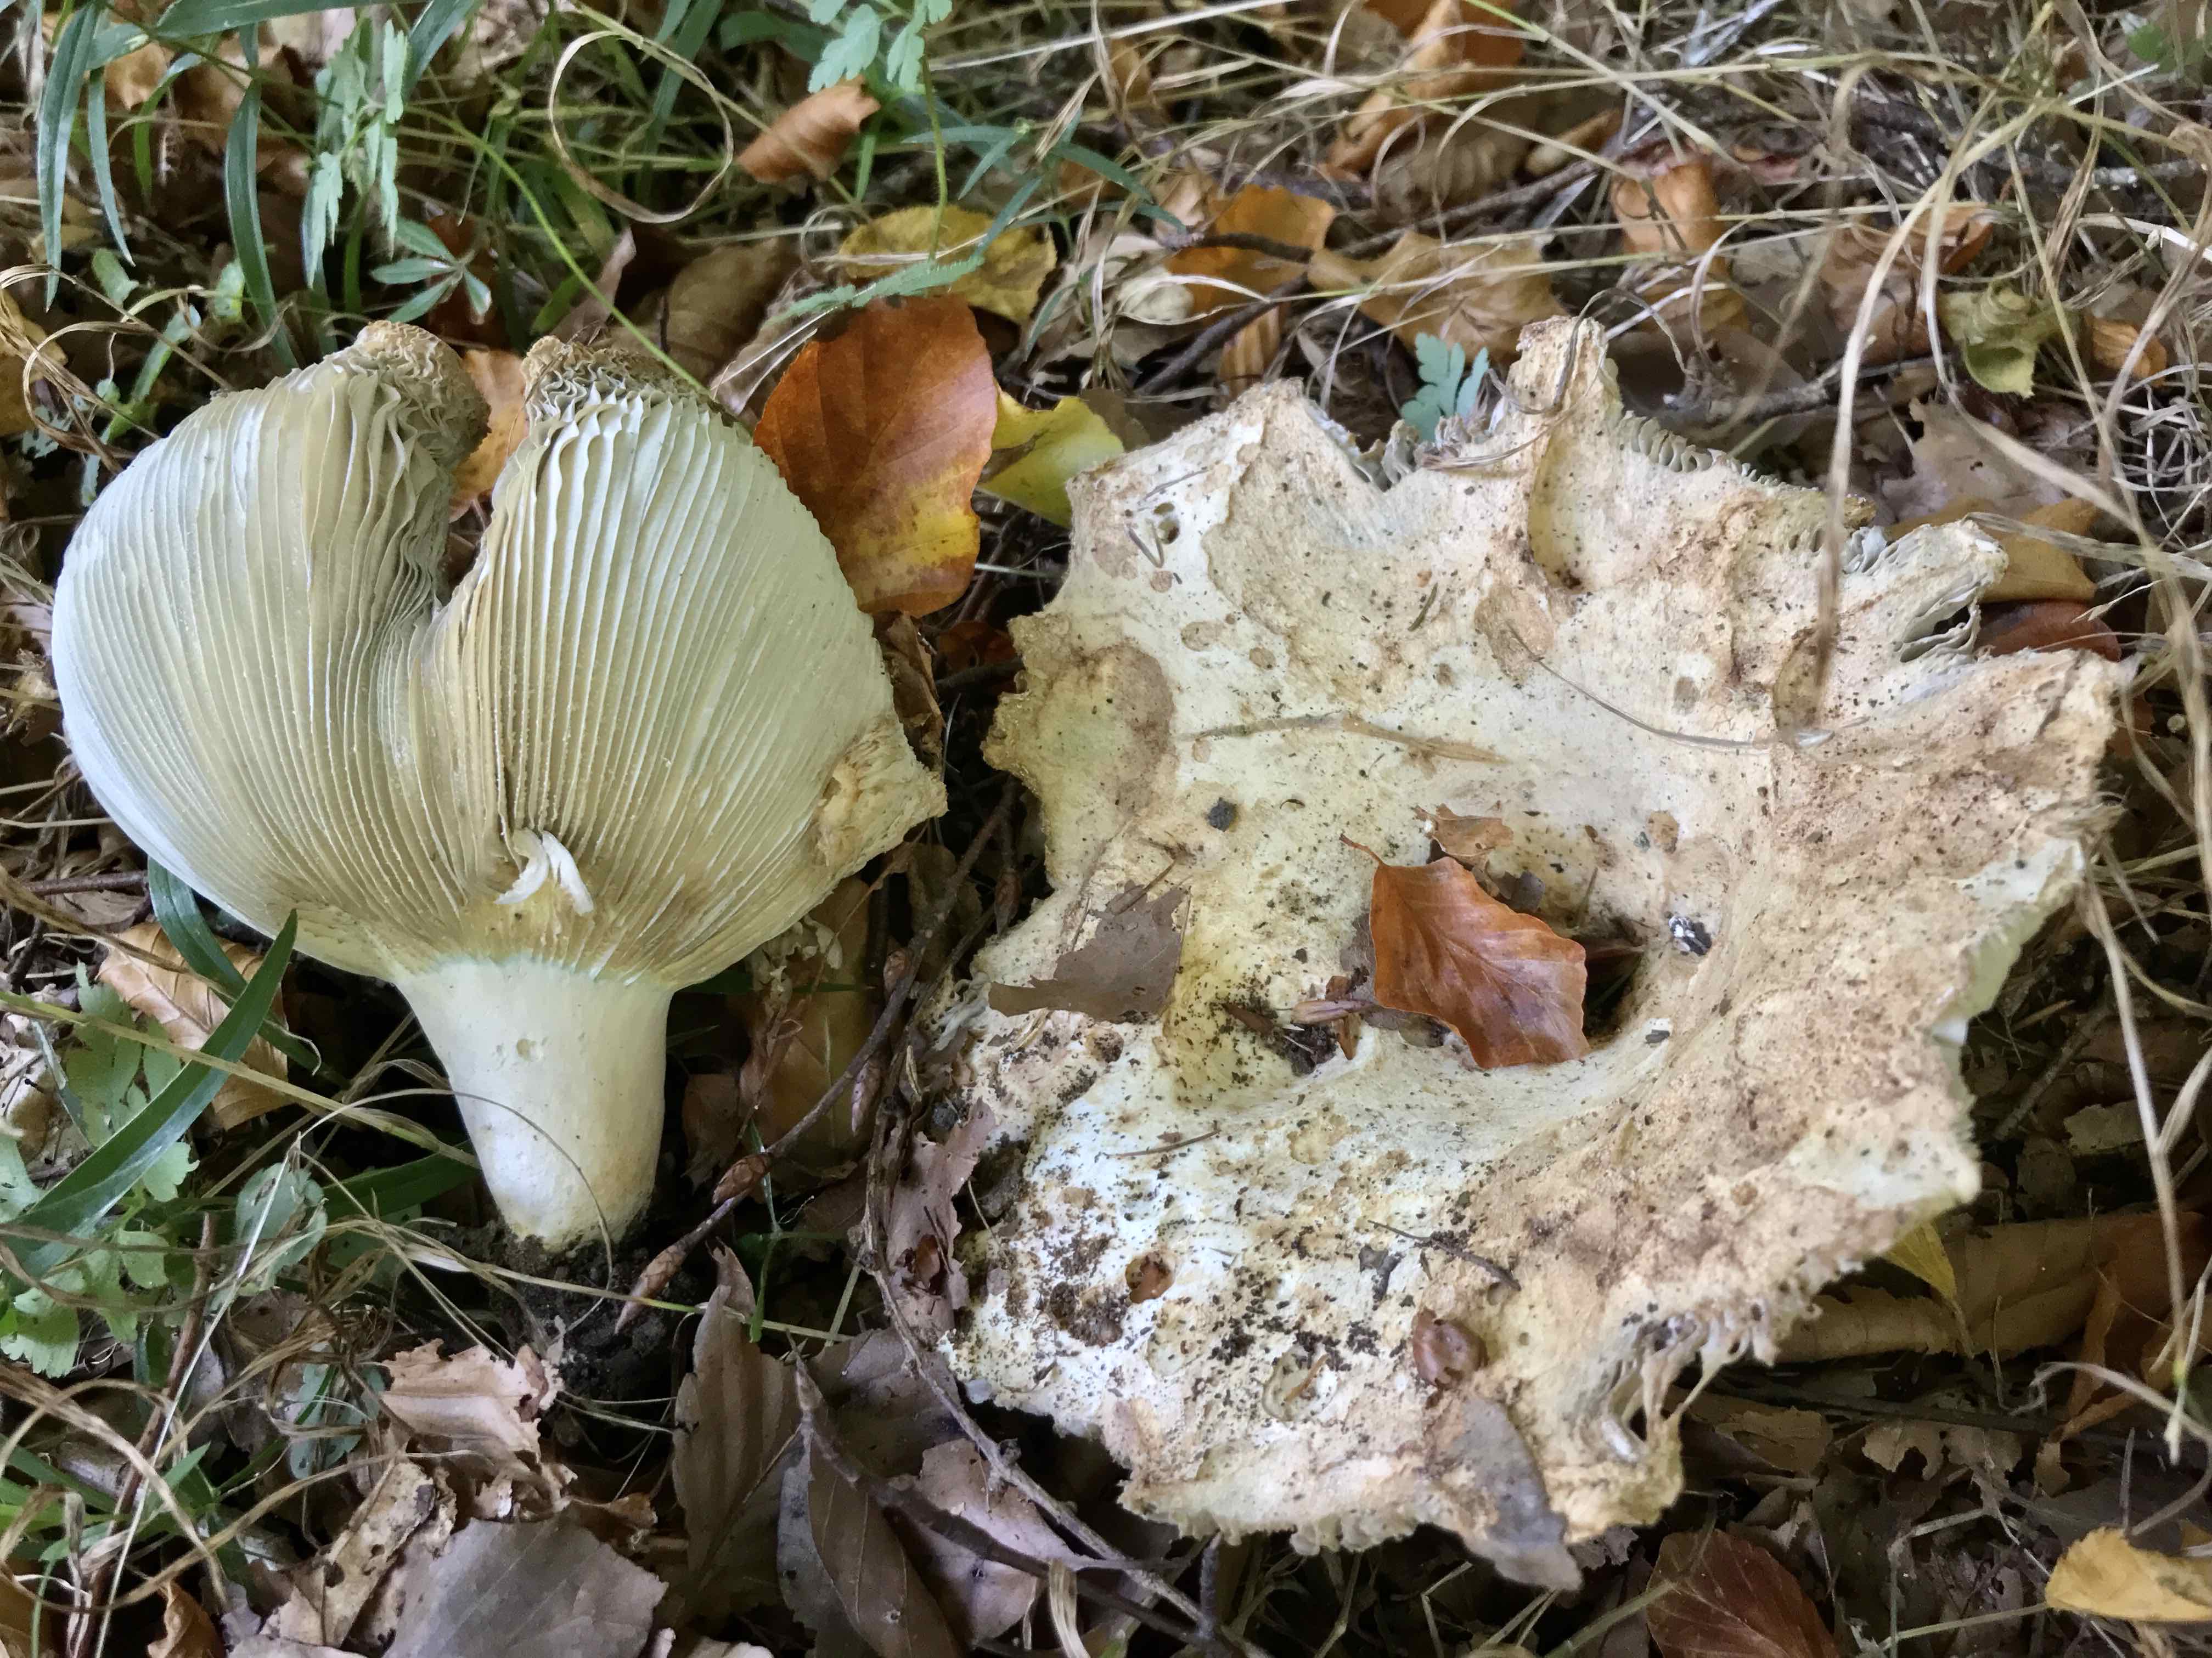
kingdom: Fungi
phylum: Basidiomycota
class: Agaricomycetes
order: Russulales
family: Russulaceae
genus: Russula
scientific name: Russula chloroides
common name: grønhalset tragt-skørhat
